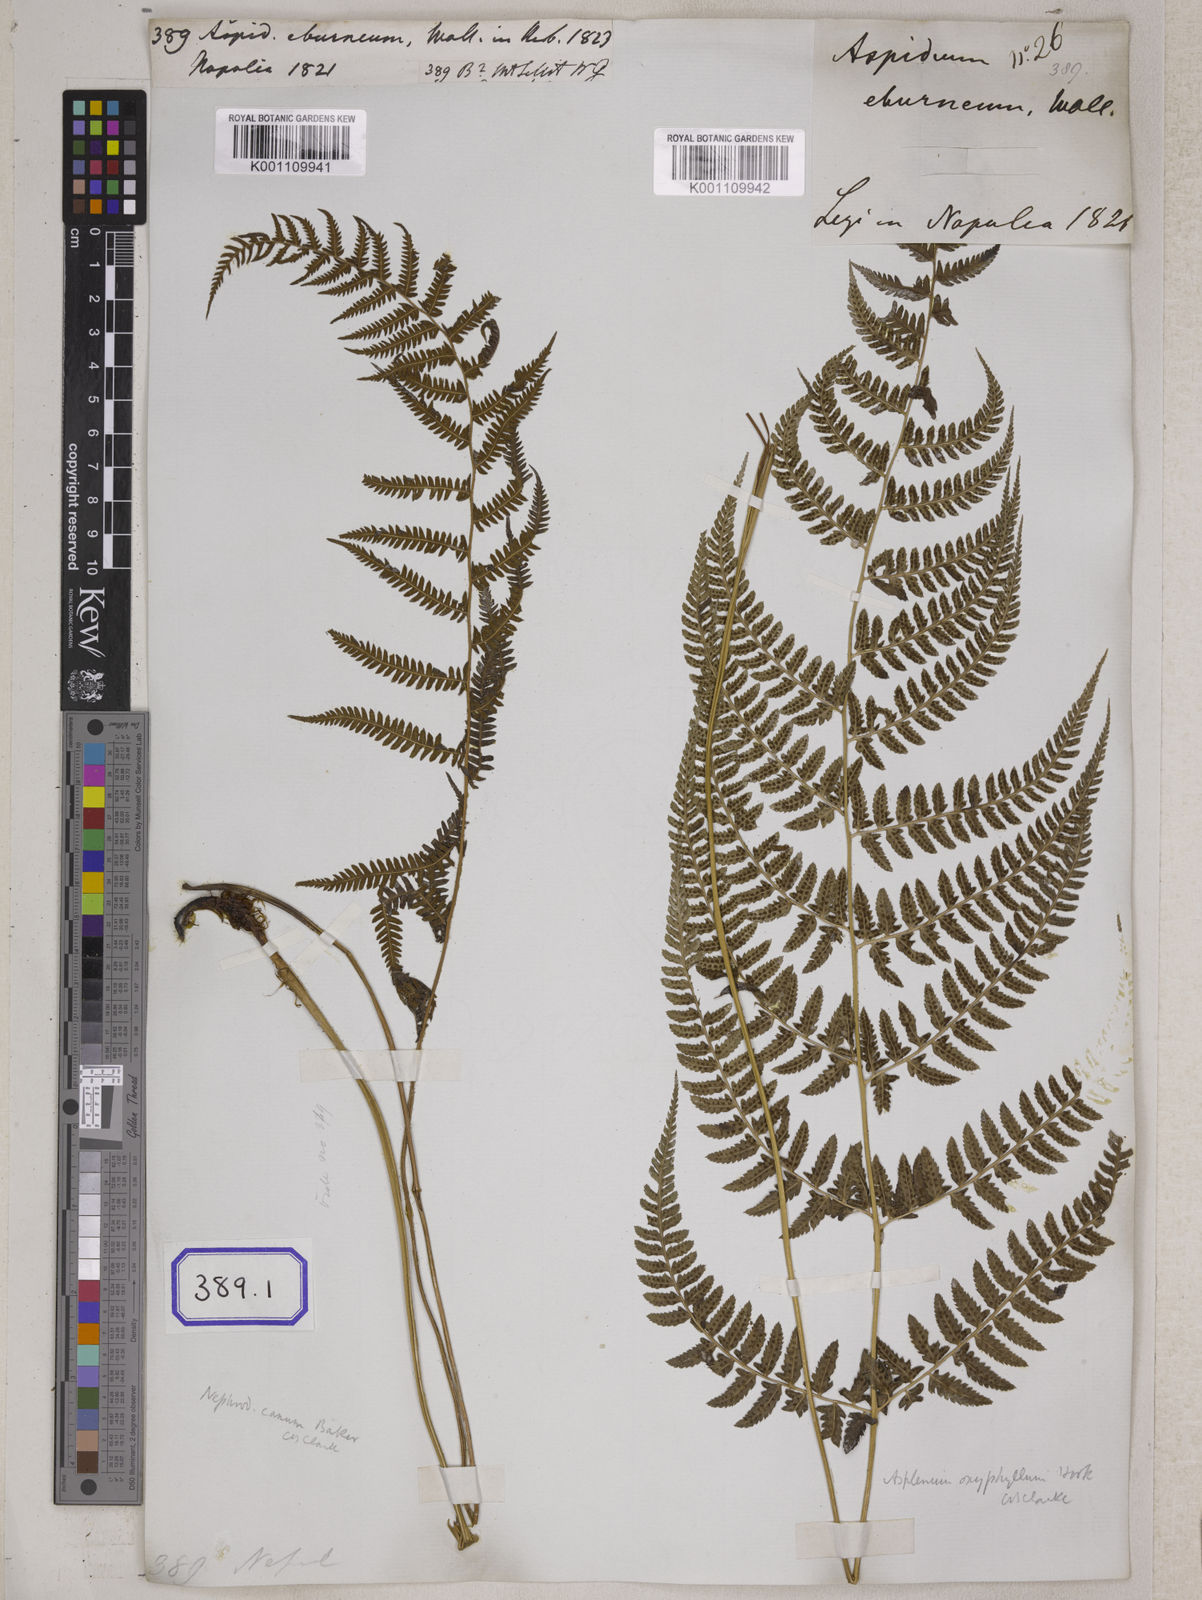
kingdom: Plantae
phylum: Tracheophyta
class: Polypodiopsida
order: Polypodiales
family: Athyriaceae
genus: Athyrium
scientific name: Athyrium eburneum
